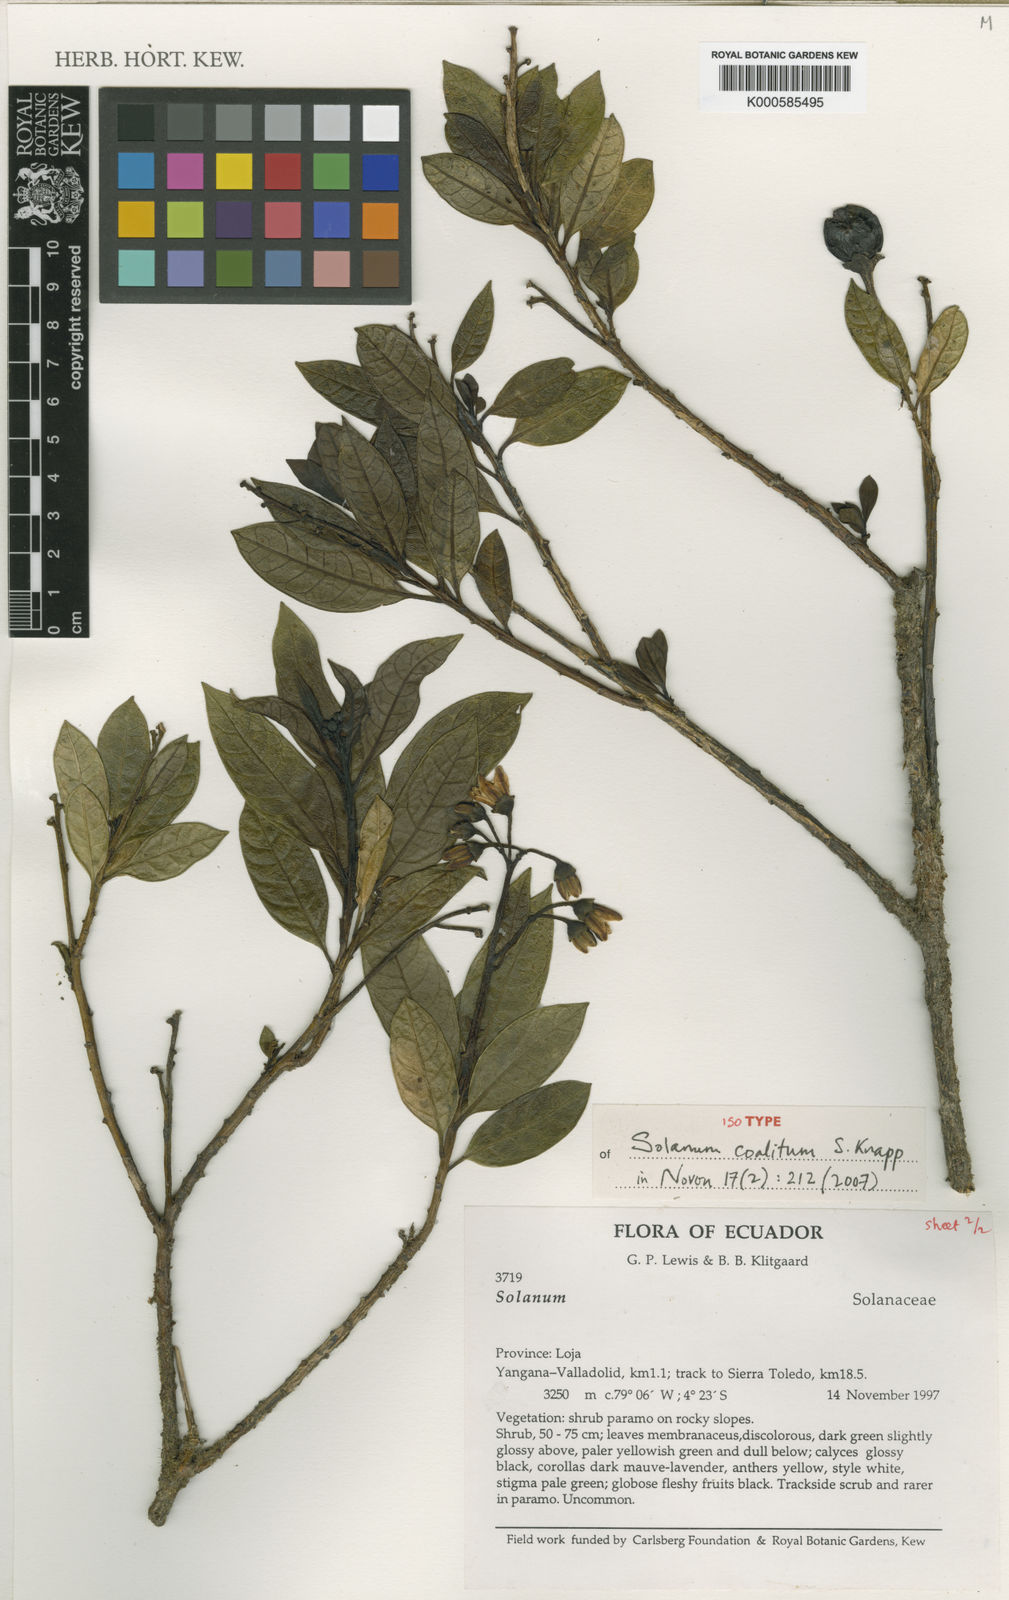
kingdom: Plantae
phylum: Tracheophyta
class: Magnoliopsida
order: Solanales
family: Solanaceae
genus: Solanum
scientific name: Solanum coalitum
